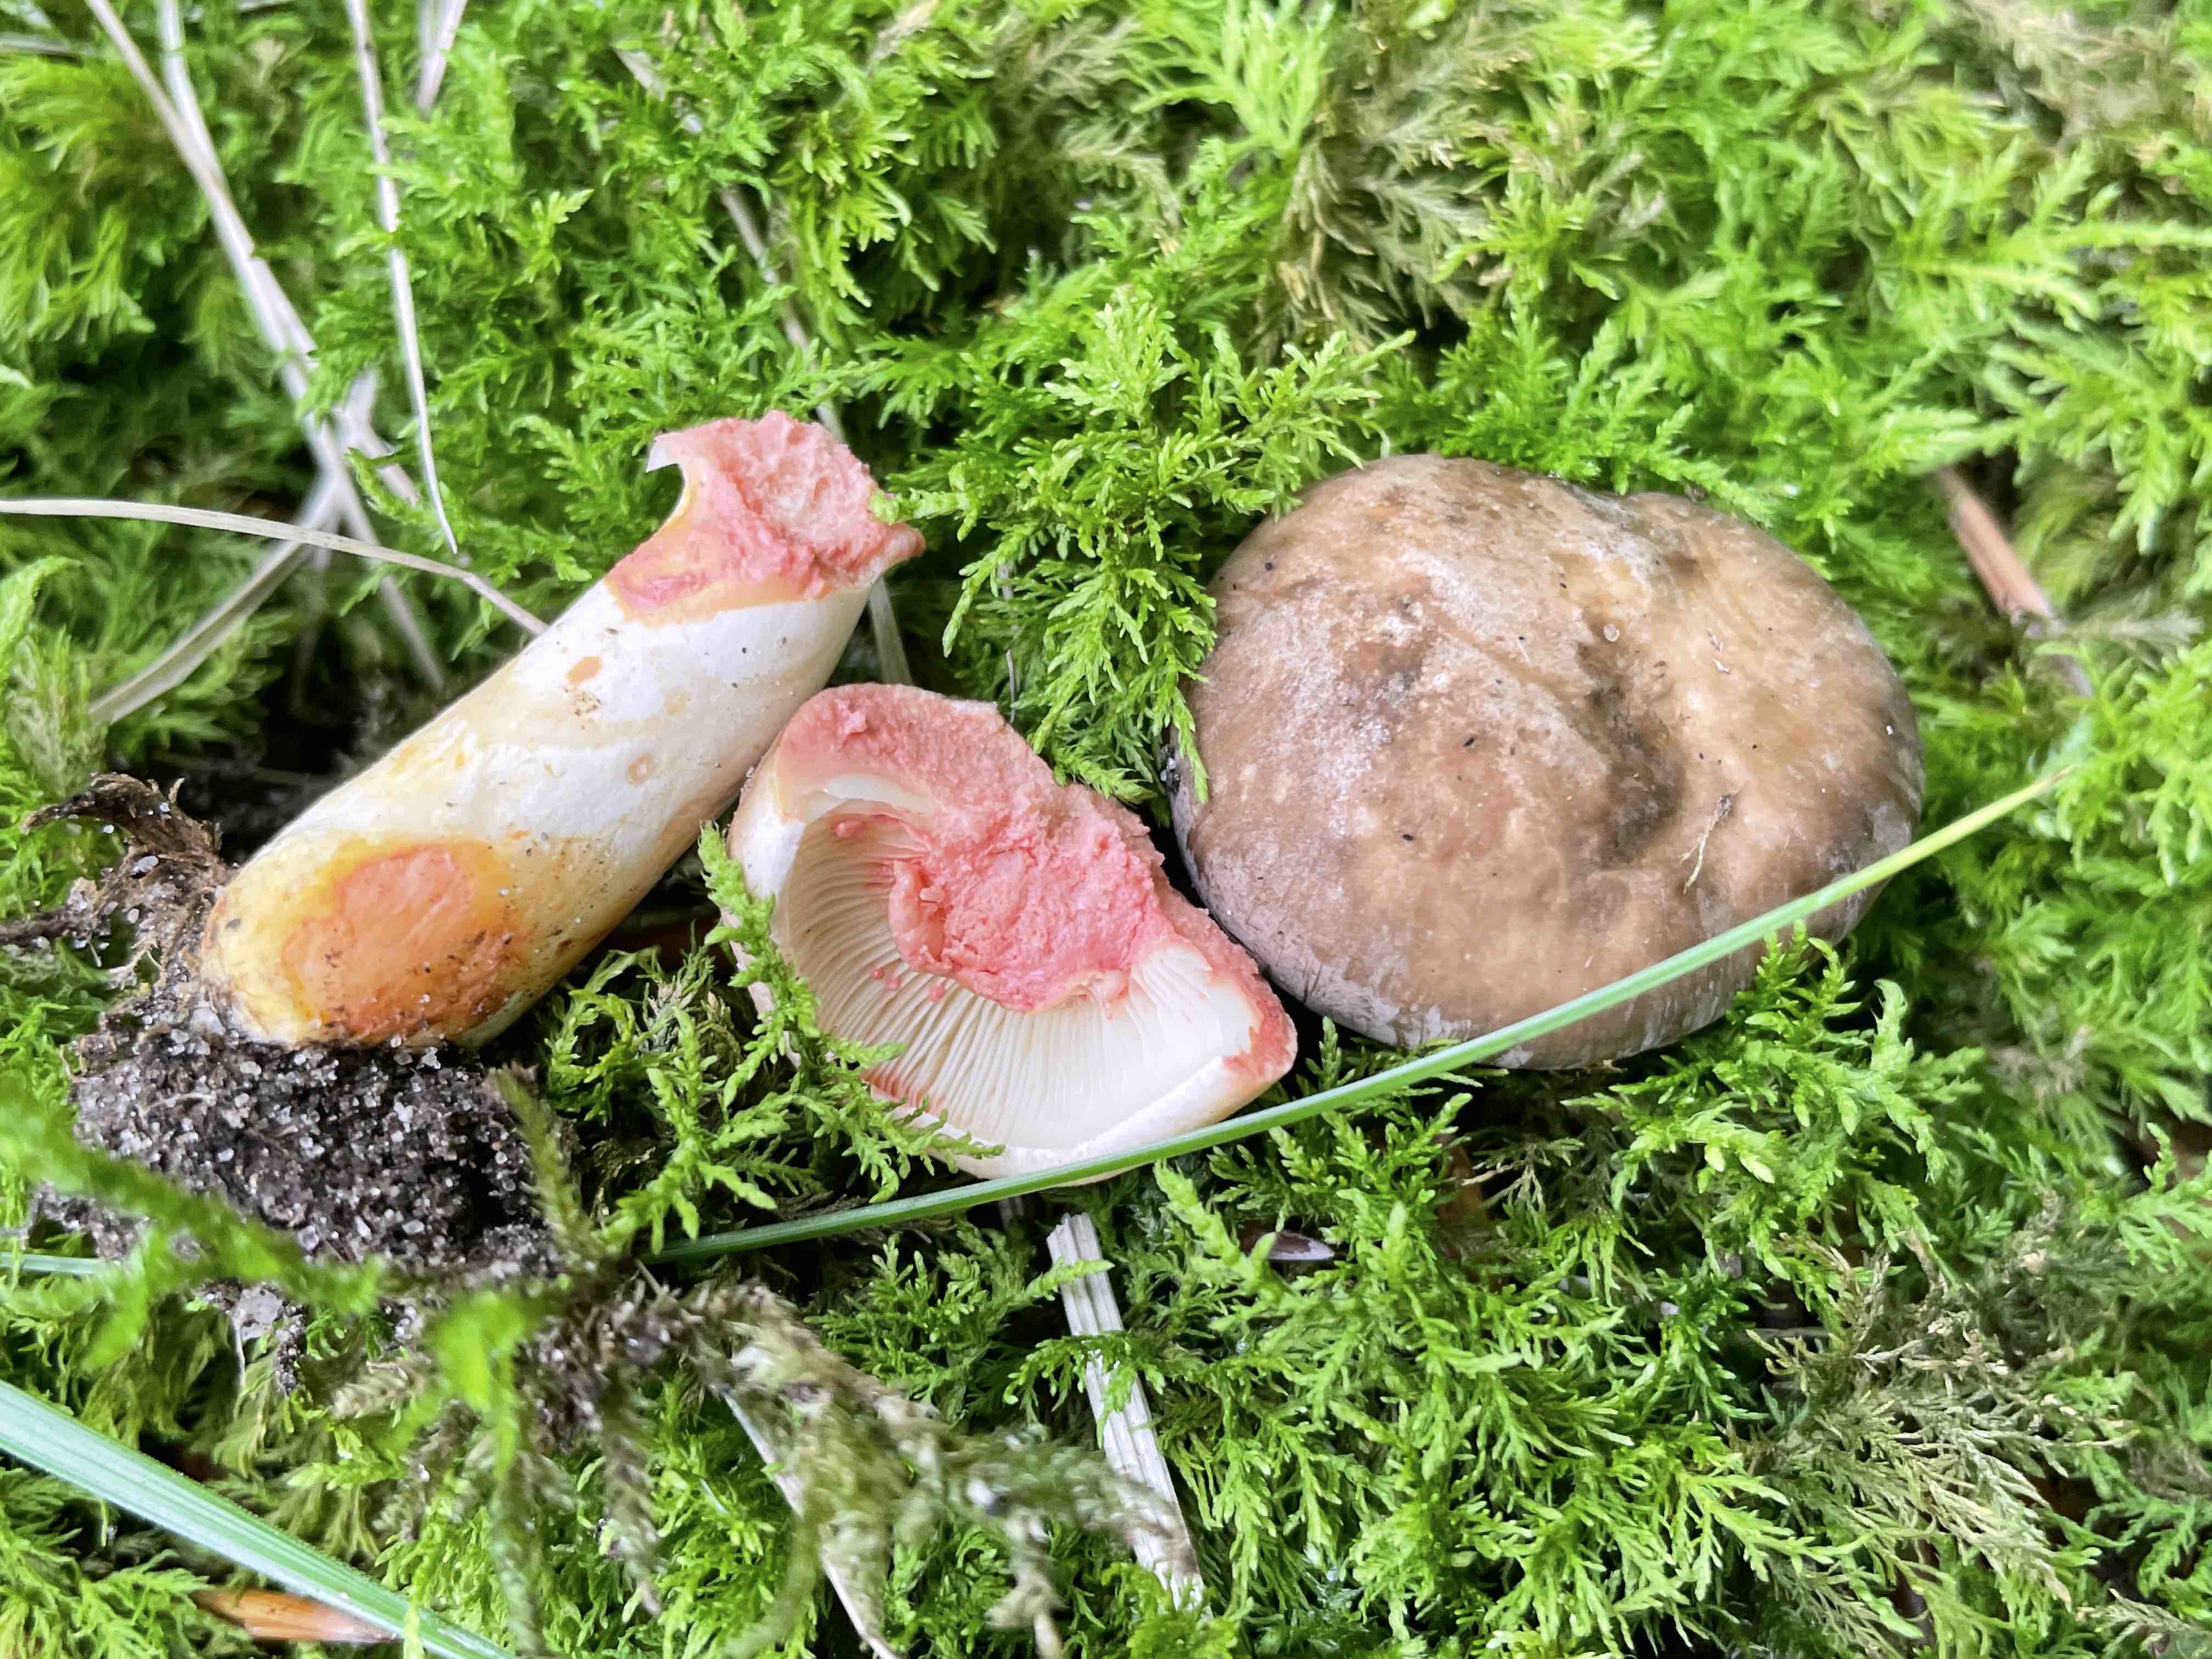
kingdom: Fungi
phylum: Basidiomycota
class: Agaricomycetes
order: Russulales
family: Russulaceae
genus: Lactarius
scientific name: Lactarius acris
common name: rosamælket mælkehat
